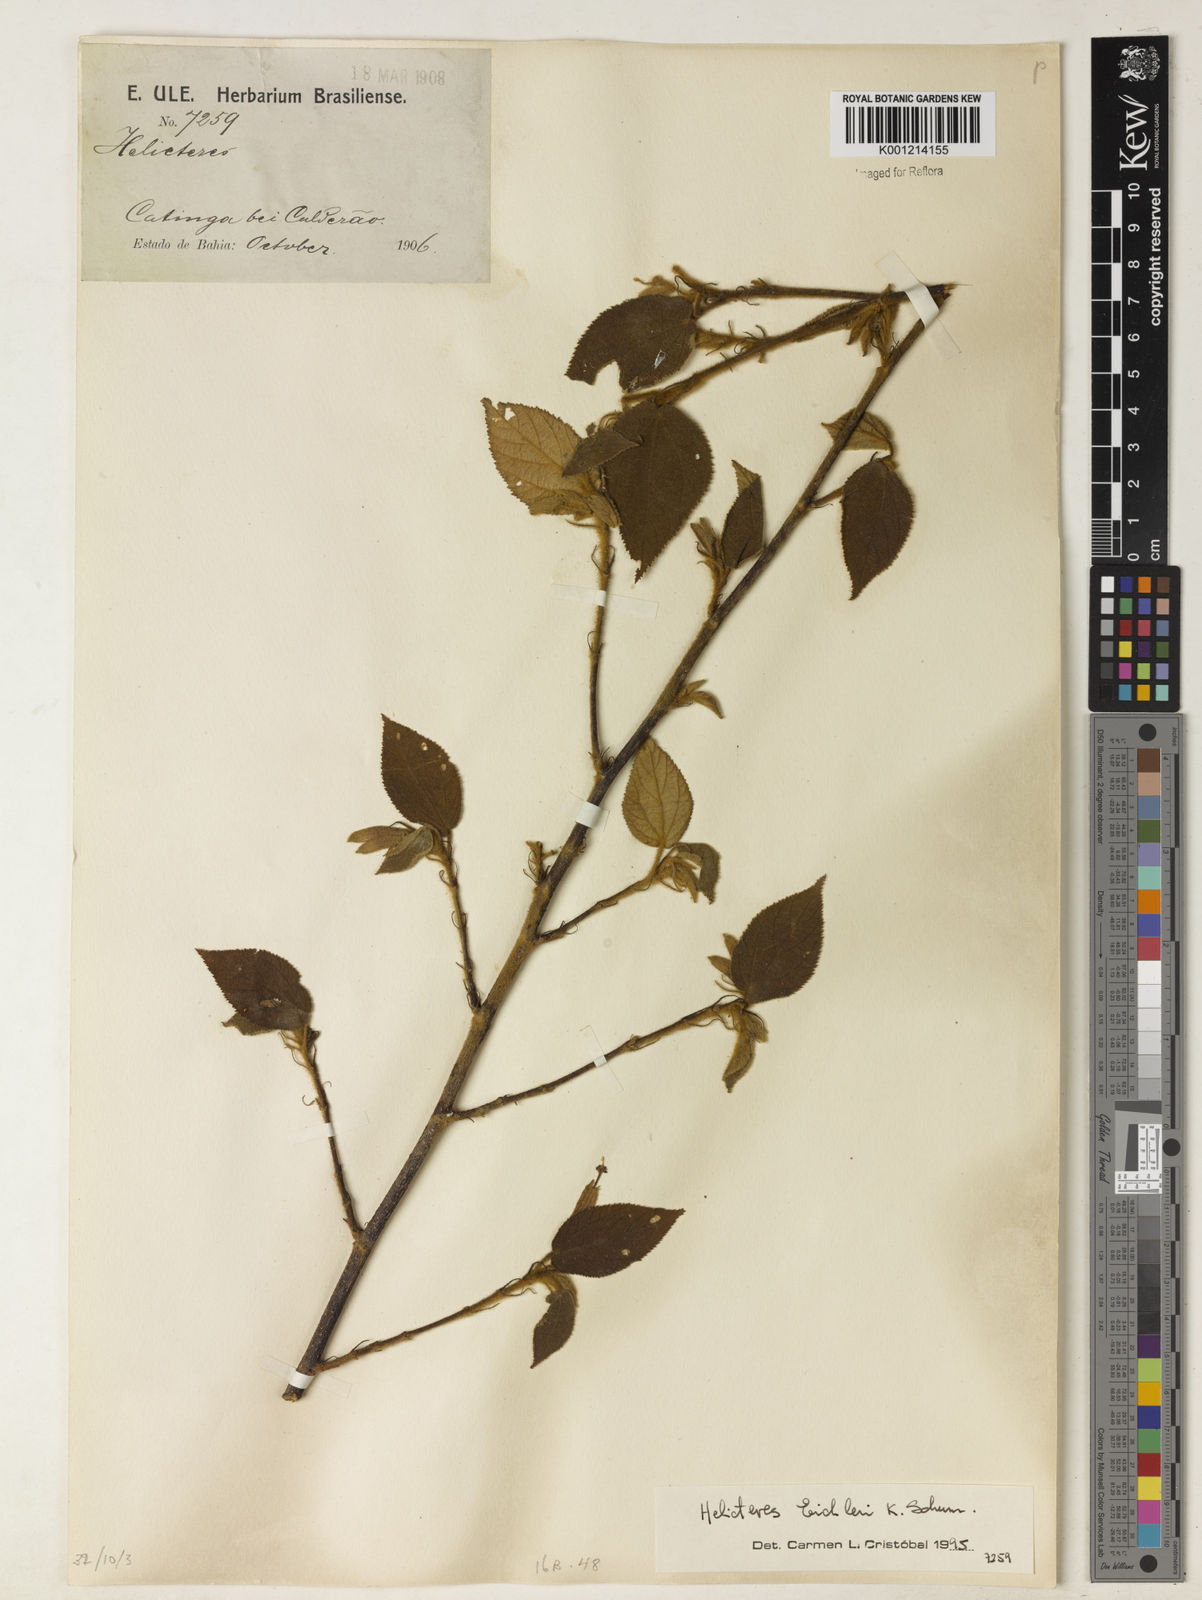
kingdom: Plantae
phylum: Tracheophyta
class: Magnoliopsida
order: Malvales
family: Malvaceae
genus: Helicteres
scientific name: Helicteres eichleri
